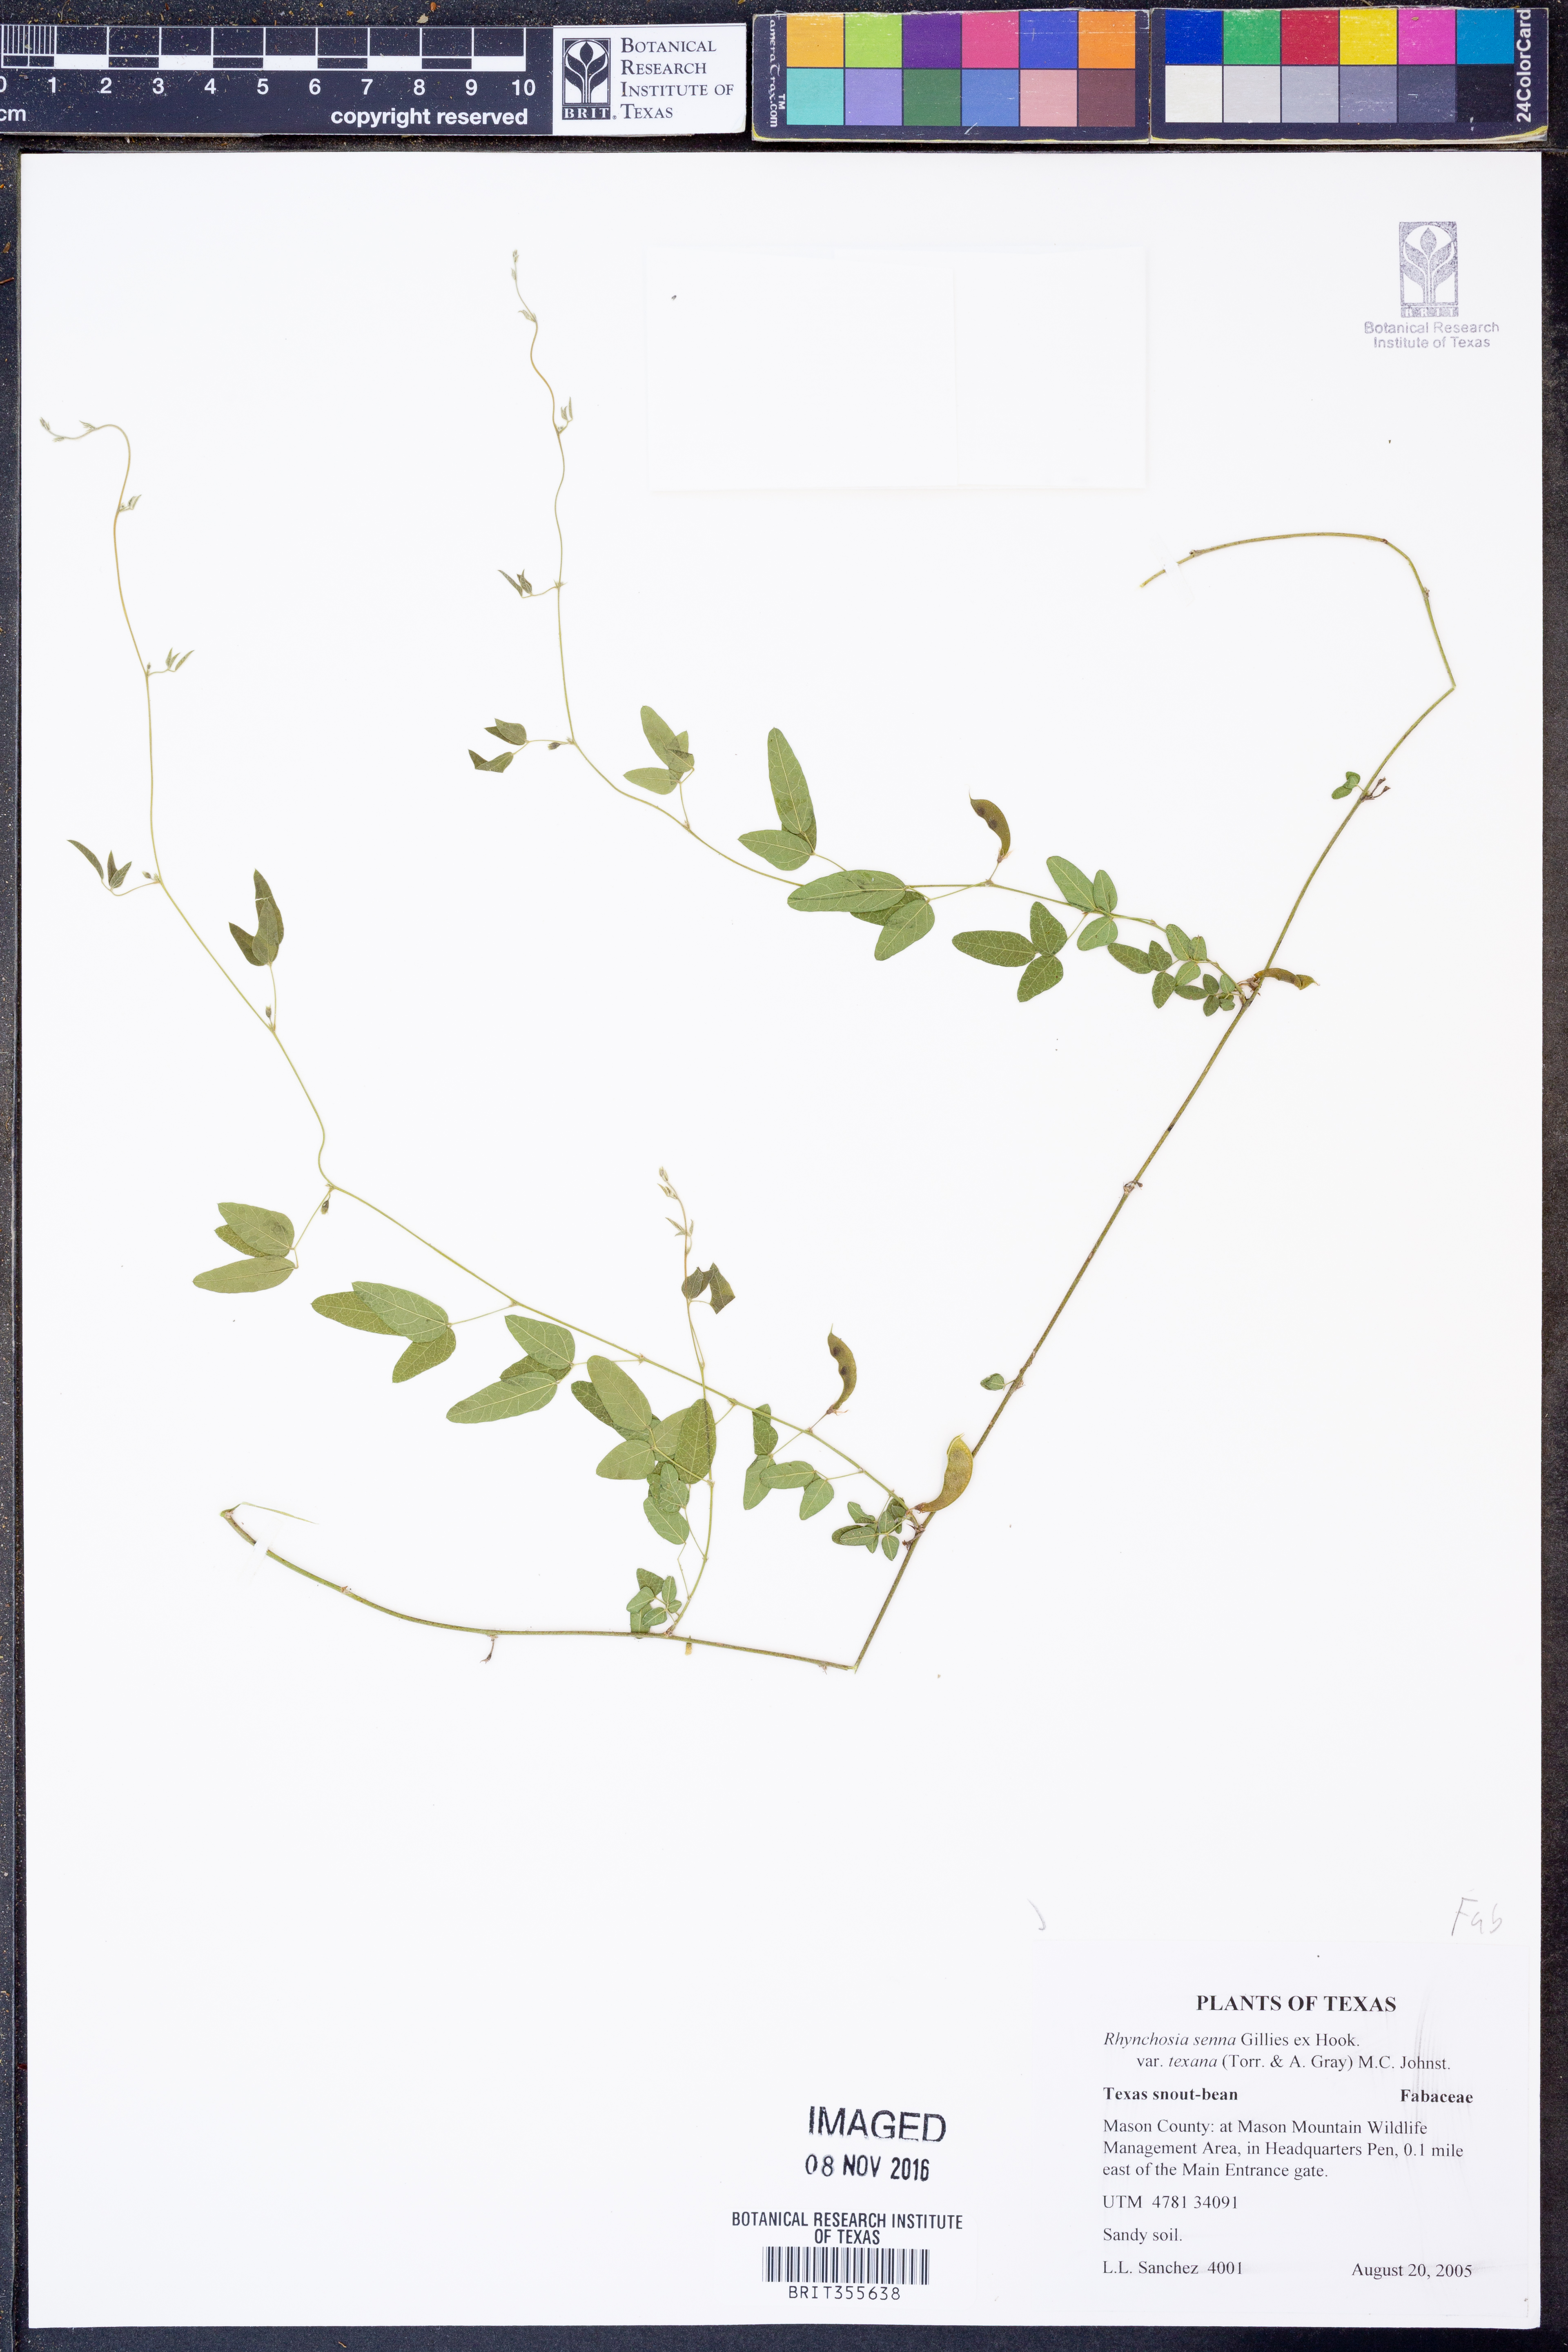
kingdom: Plantae
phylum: Tracheophyta
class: Magnoliopsida
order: Fabales
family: Fabaceae
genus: Rhynchosia
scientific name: Rhynchosia senna
